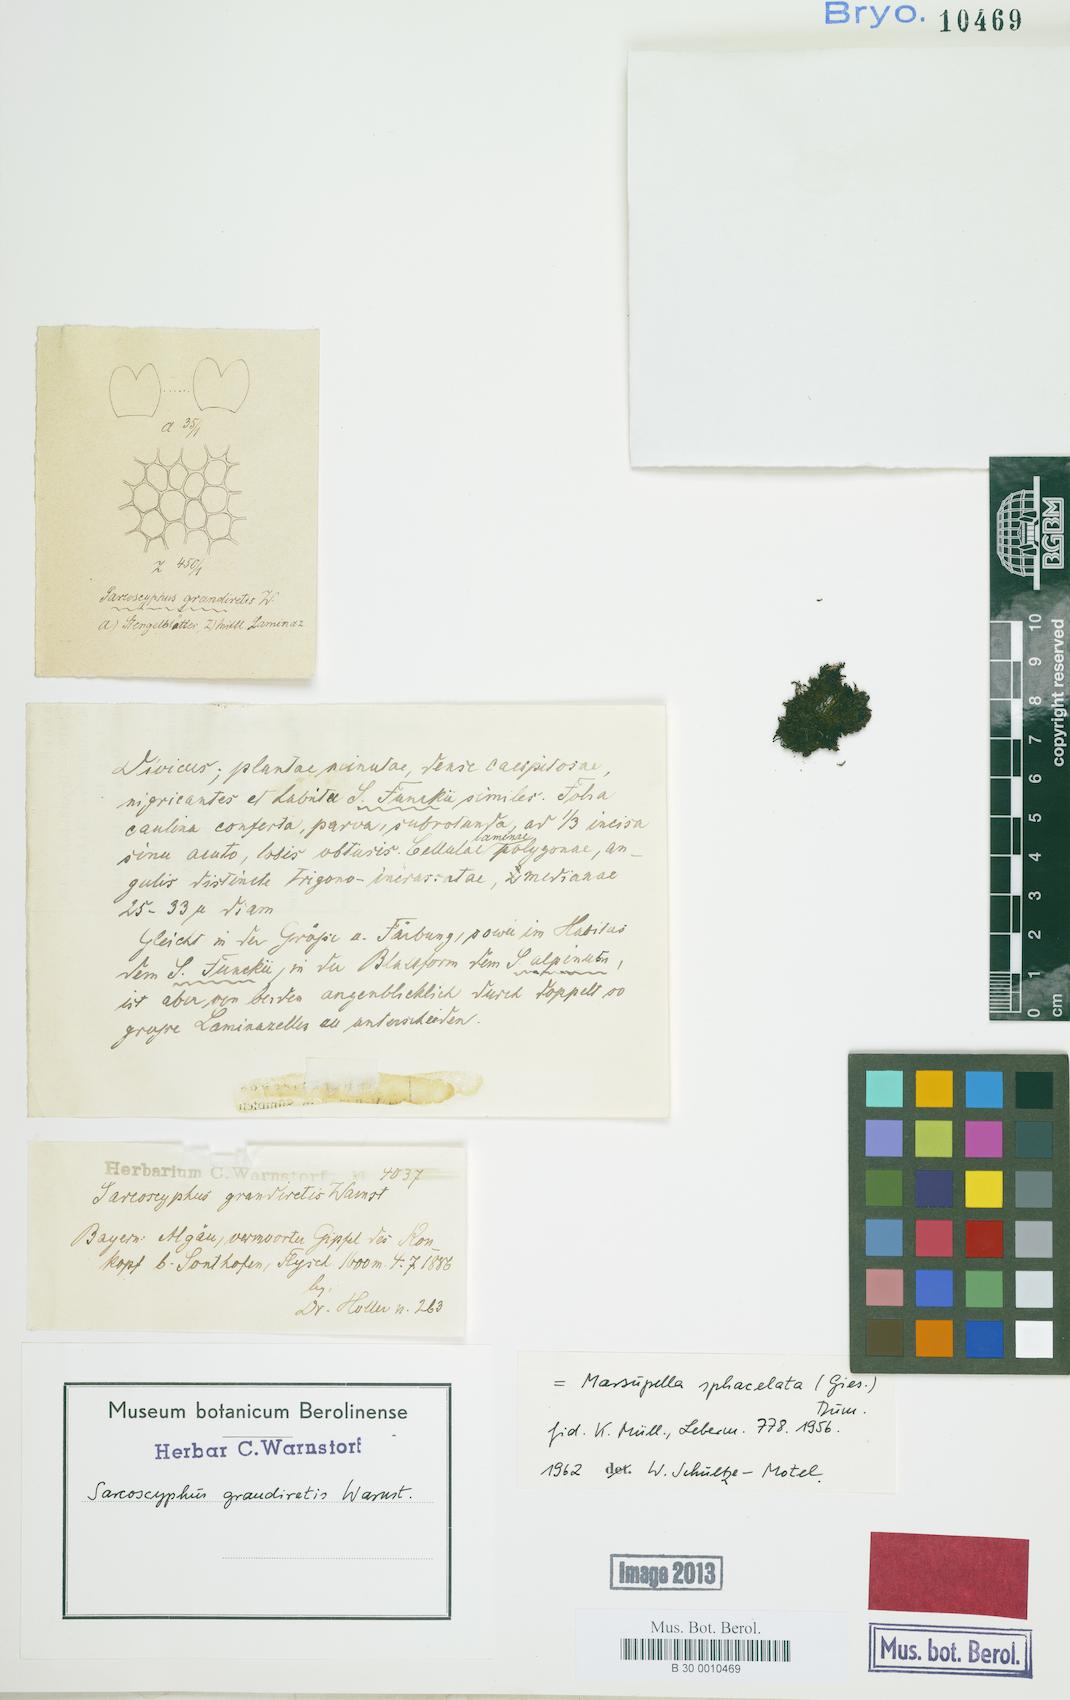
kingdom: Plantae
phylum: Marchantiophyta
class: Jungermanniopsida
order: Jungermanniales
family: Gymnomitriaceae
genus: Marsupella
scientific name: Marsupella sphacelata
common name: Speckled rustwort
